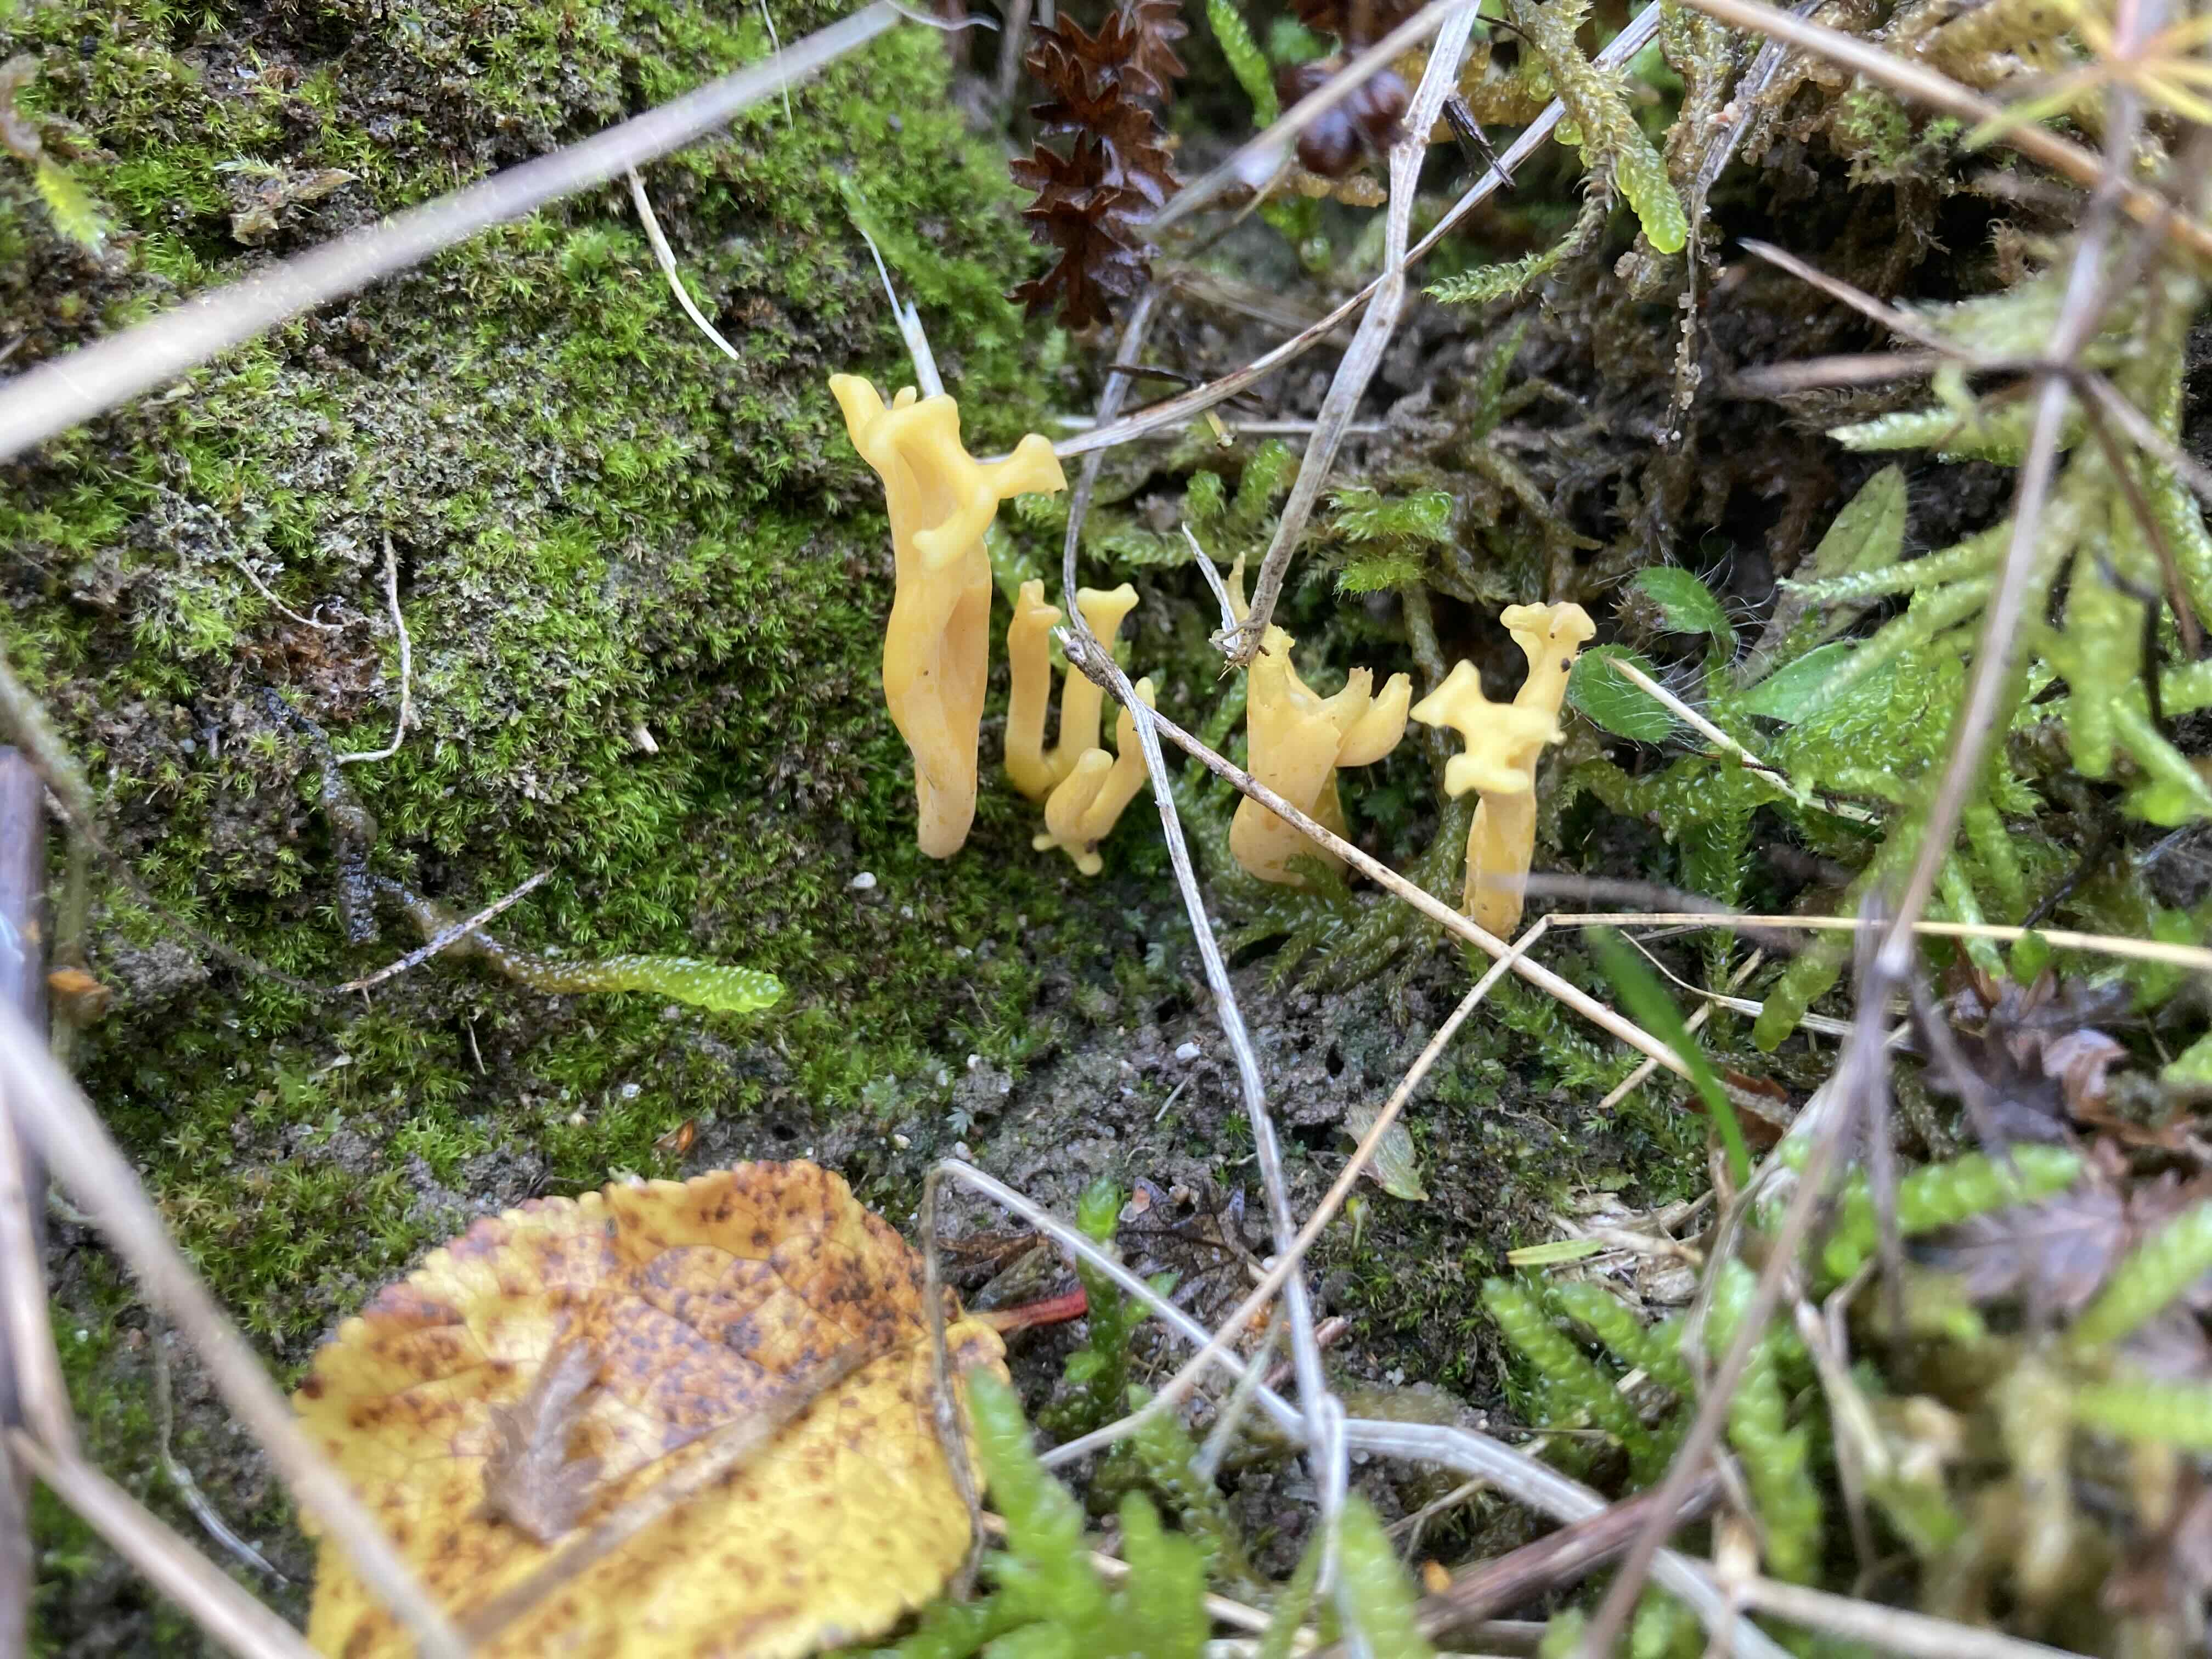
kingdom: Fungi
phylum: Basidiomycota
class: Agaricomycetes
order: Agaricales
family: Clavariaceae
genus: Clavulinopsis
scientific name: Clavulinopsis corniculata
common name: eng-køllesvamp
